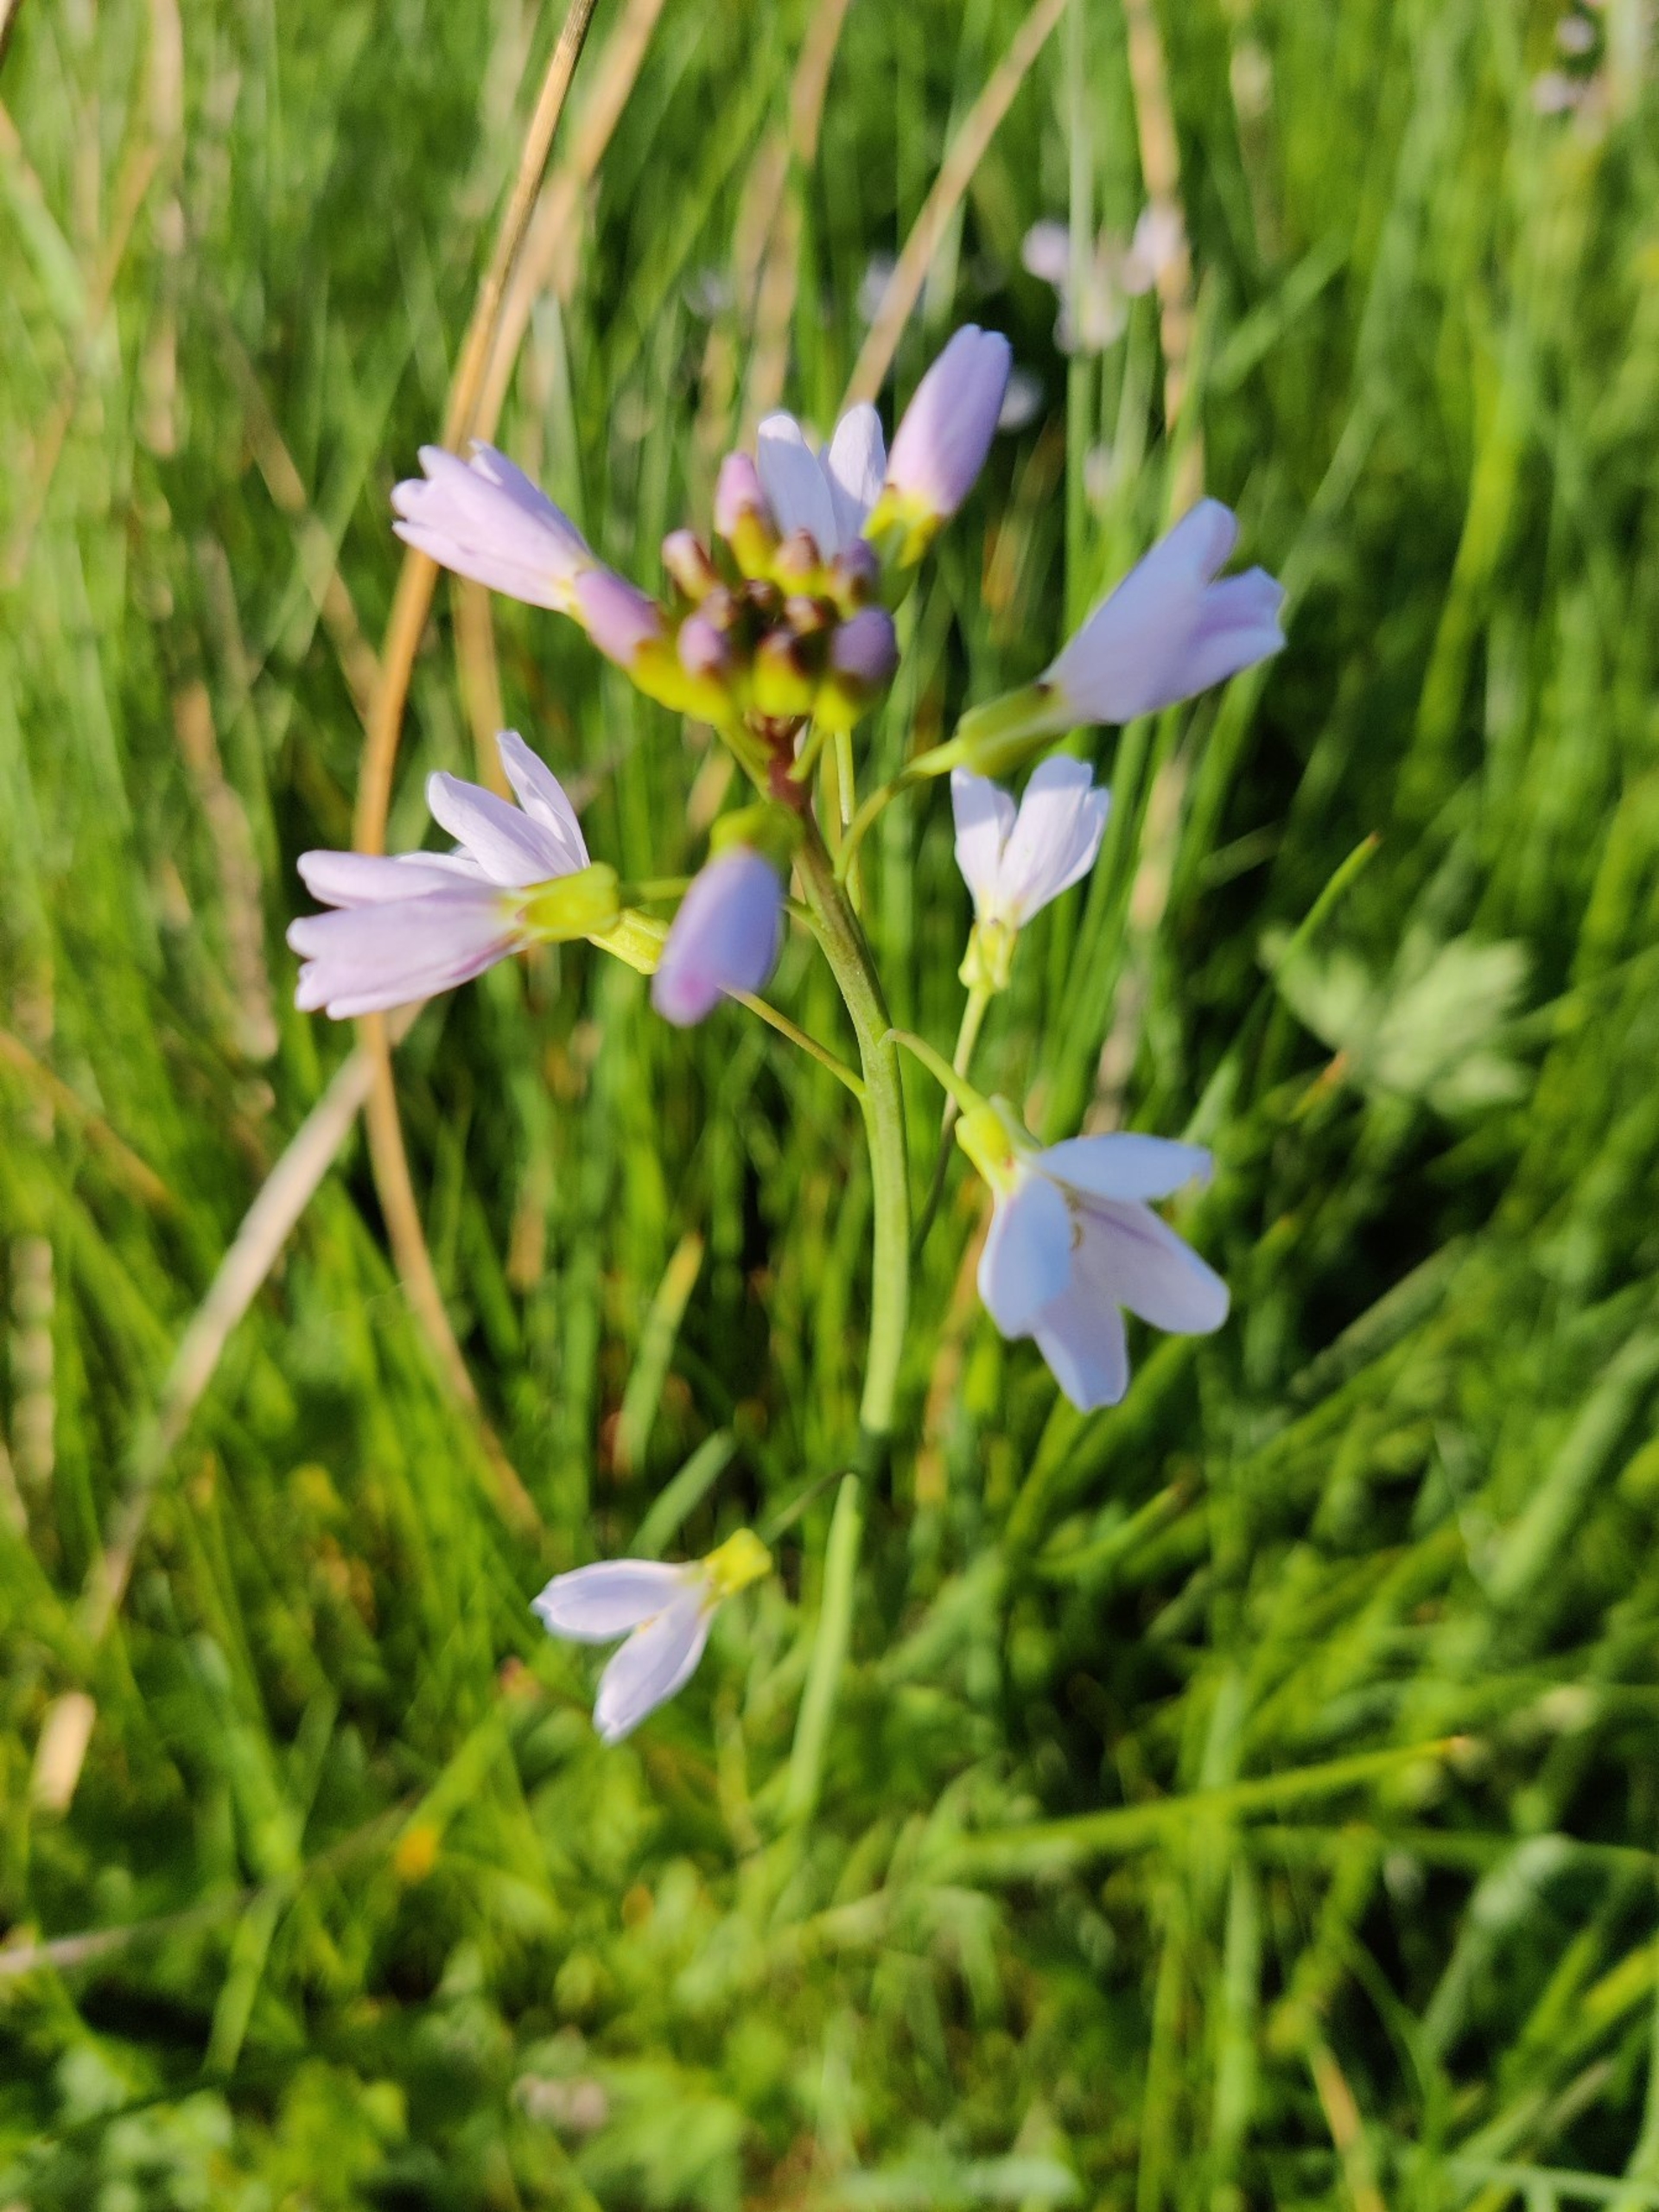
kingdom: Plantae
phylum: Tracheophyta
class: Magnoliopsida
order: Brassicales
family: Brassicaceae
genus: Cardamine
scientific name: Cardamine pratensis
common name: Engkarse
